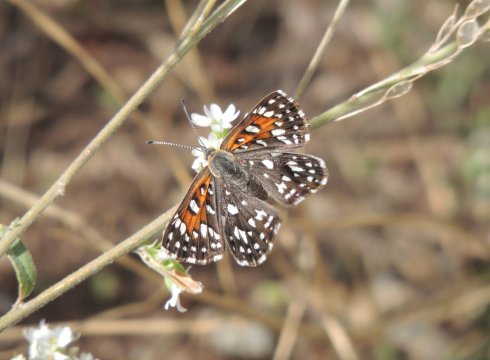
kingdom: Animalia
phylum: Arthropoda
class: Insecta
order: Lepidoptera
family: Riodinidae
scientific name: Riodinidae
